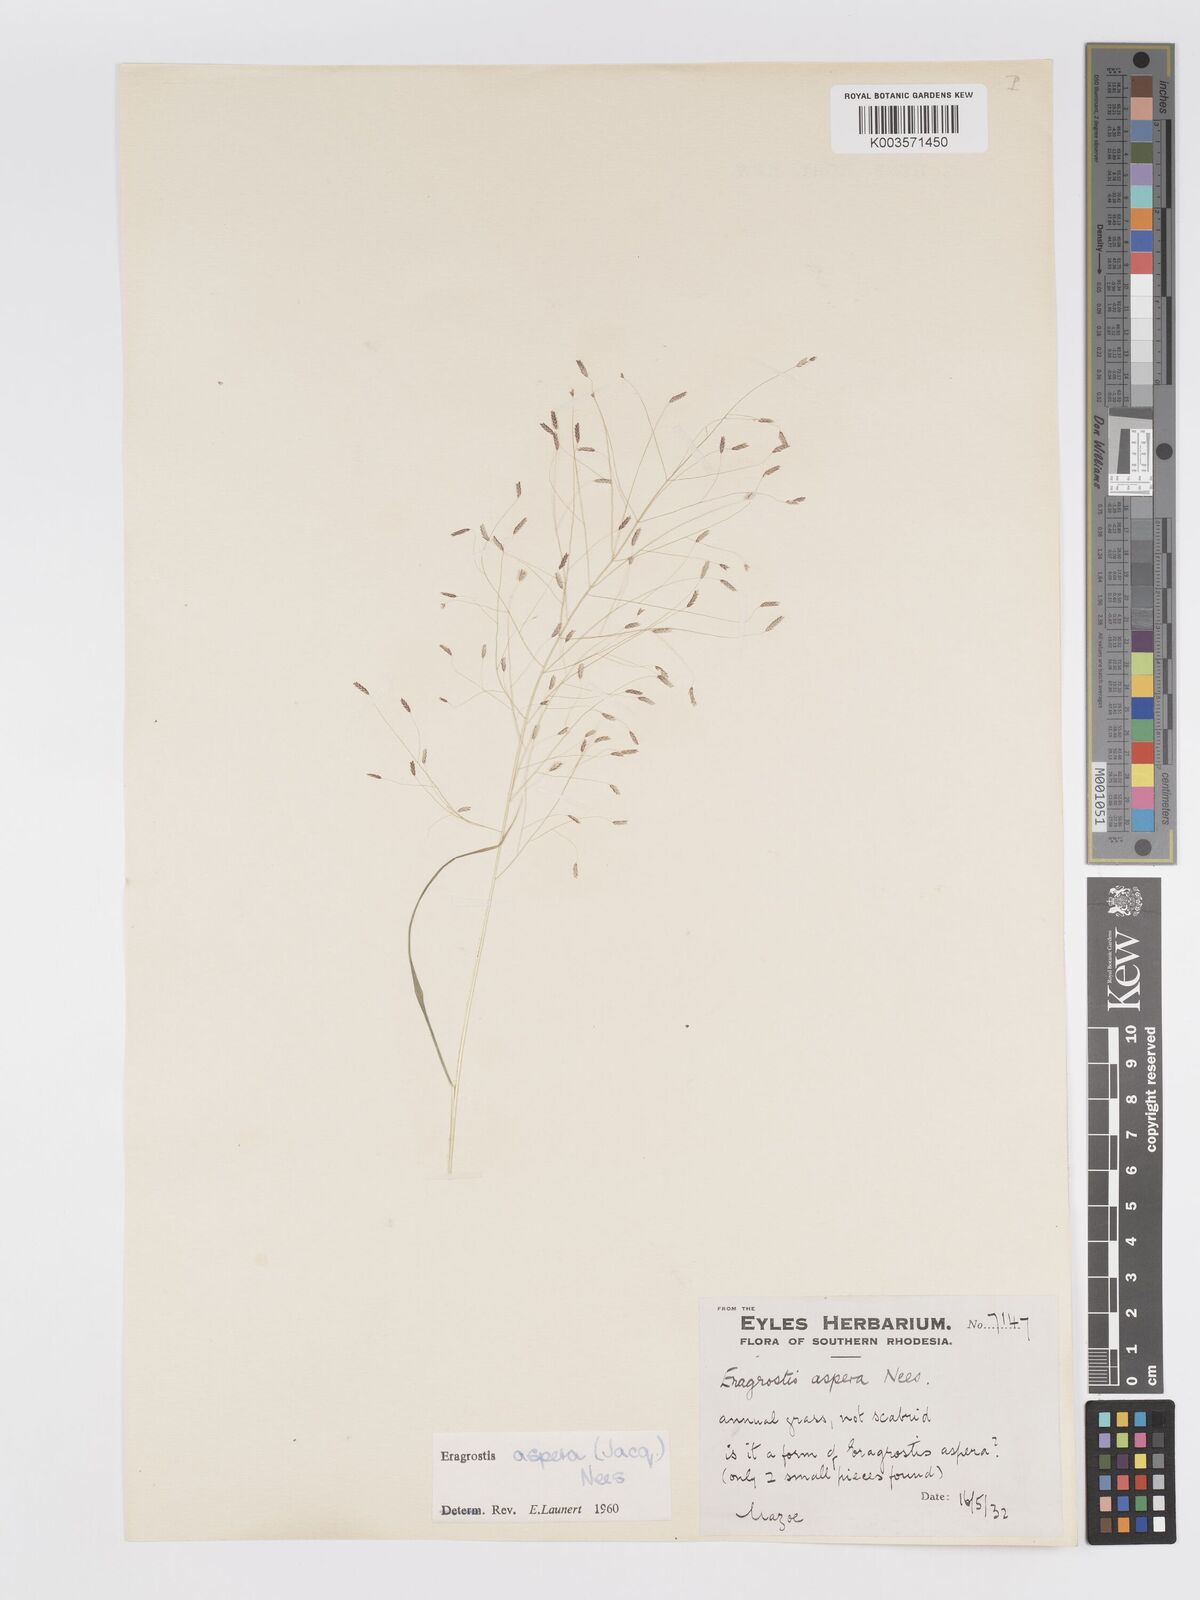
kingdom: Plantae
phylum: Tracheophyta
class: Liliopsida
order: Poales
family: Poaceae
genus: Eragrostis
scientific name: Eragrostis aspera
